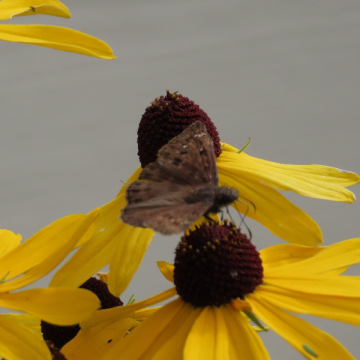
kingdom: Animalia
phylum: Arthropoda
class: Insecta
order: Lepidoptera
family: Hesperiidae
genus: Gesta
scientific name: Gesta
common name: Horace's Duskywing
